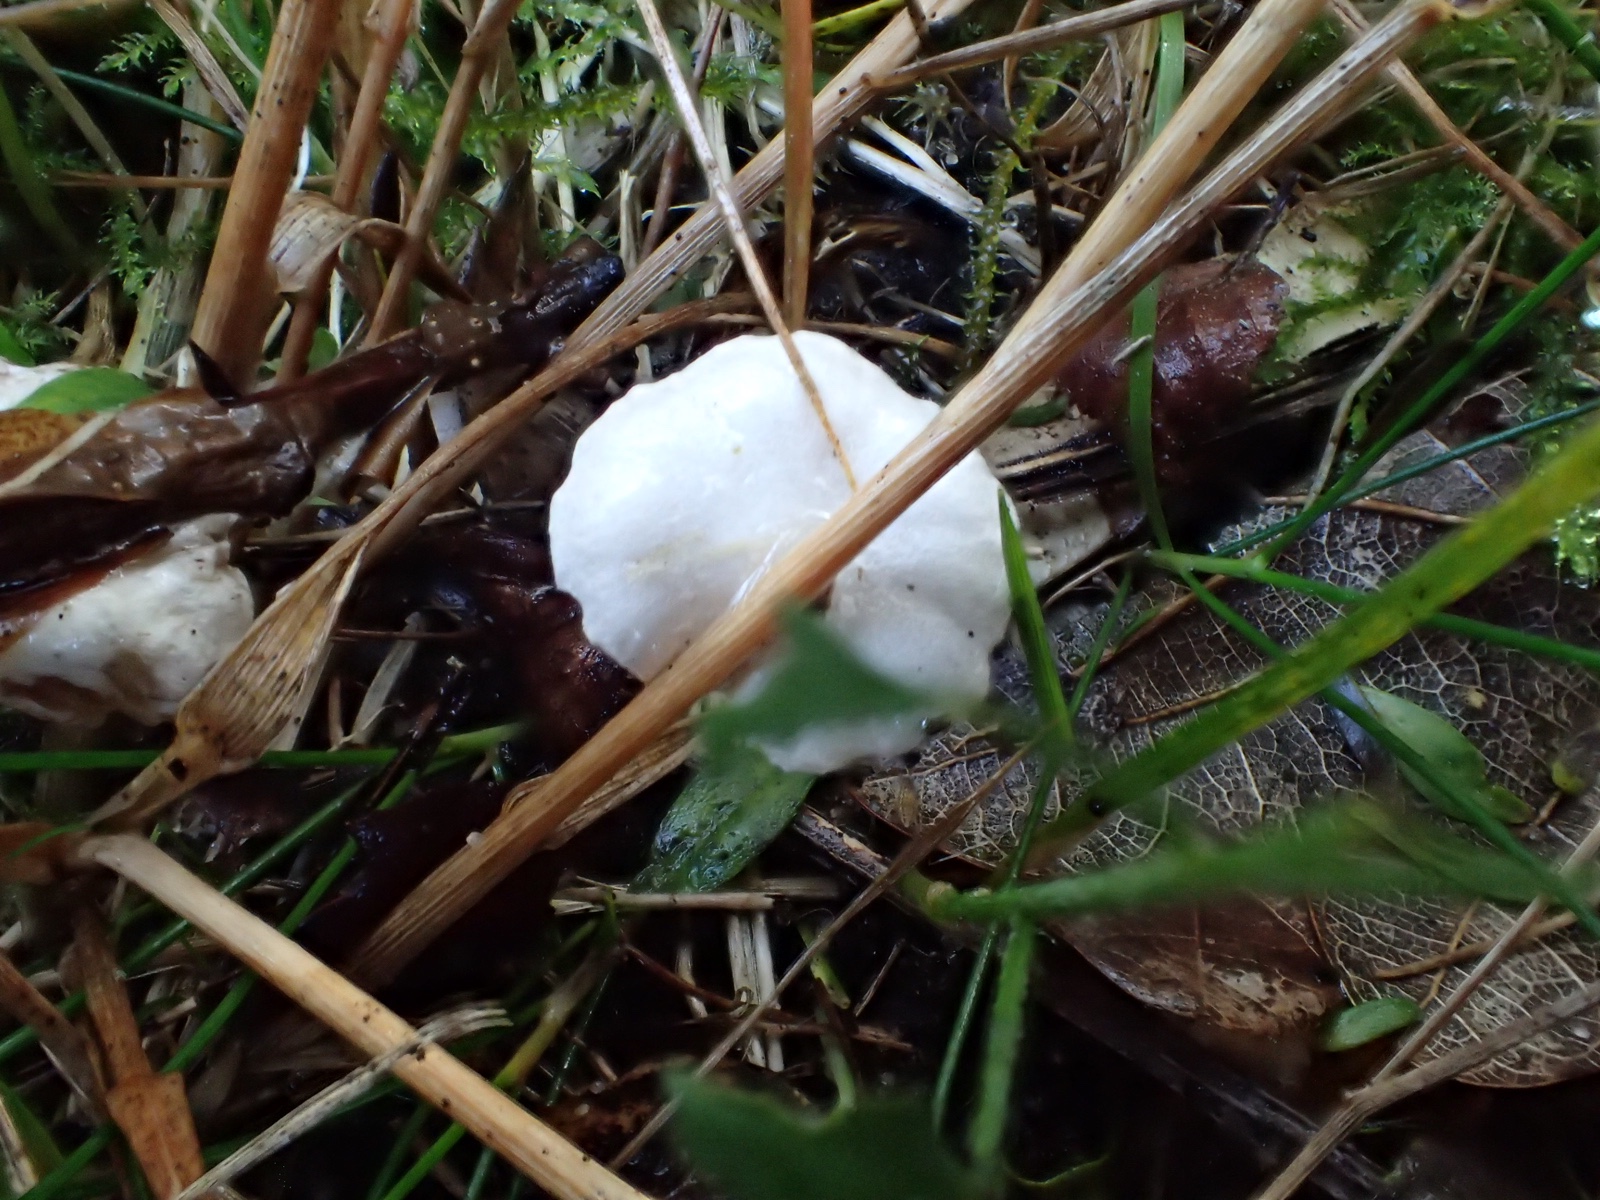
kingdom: Fungi
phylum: Basidiomycota
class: Agaricomycetes
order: Agaricales
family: Crepidotaceae
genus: Crepidotus
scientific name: Crepidotus
